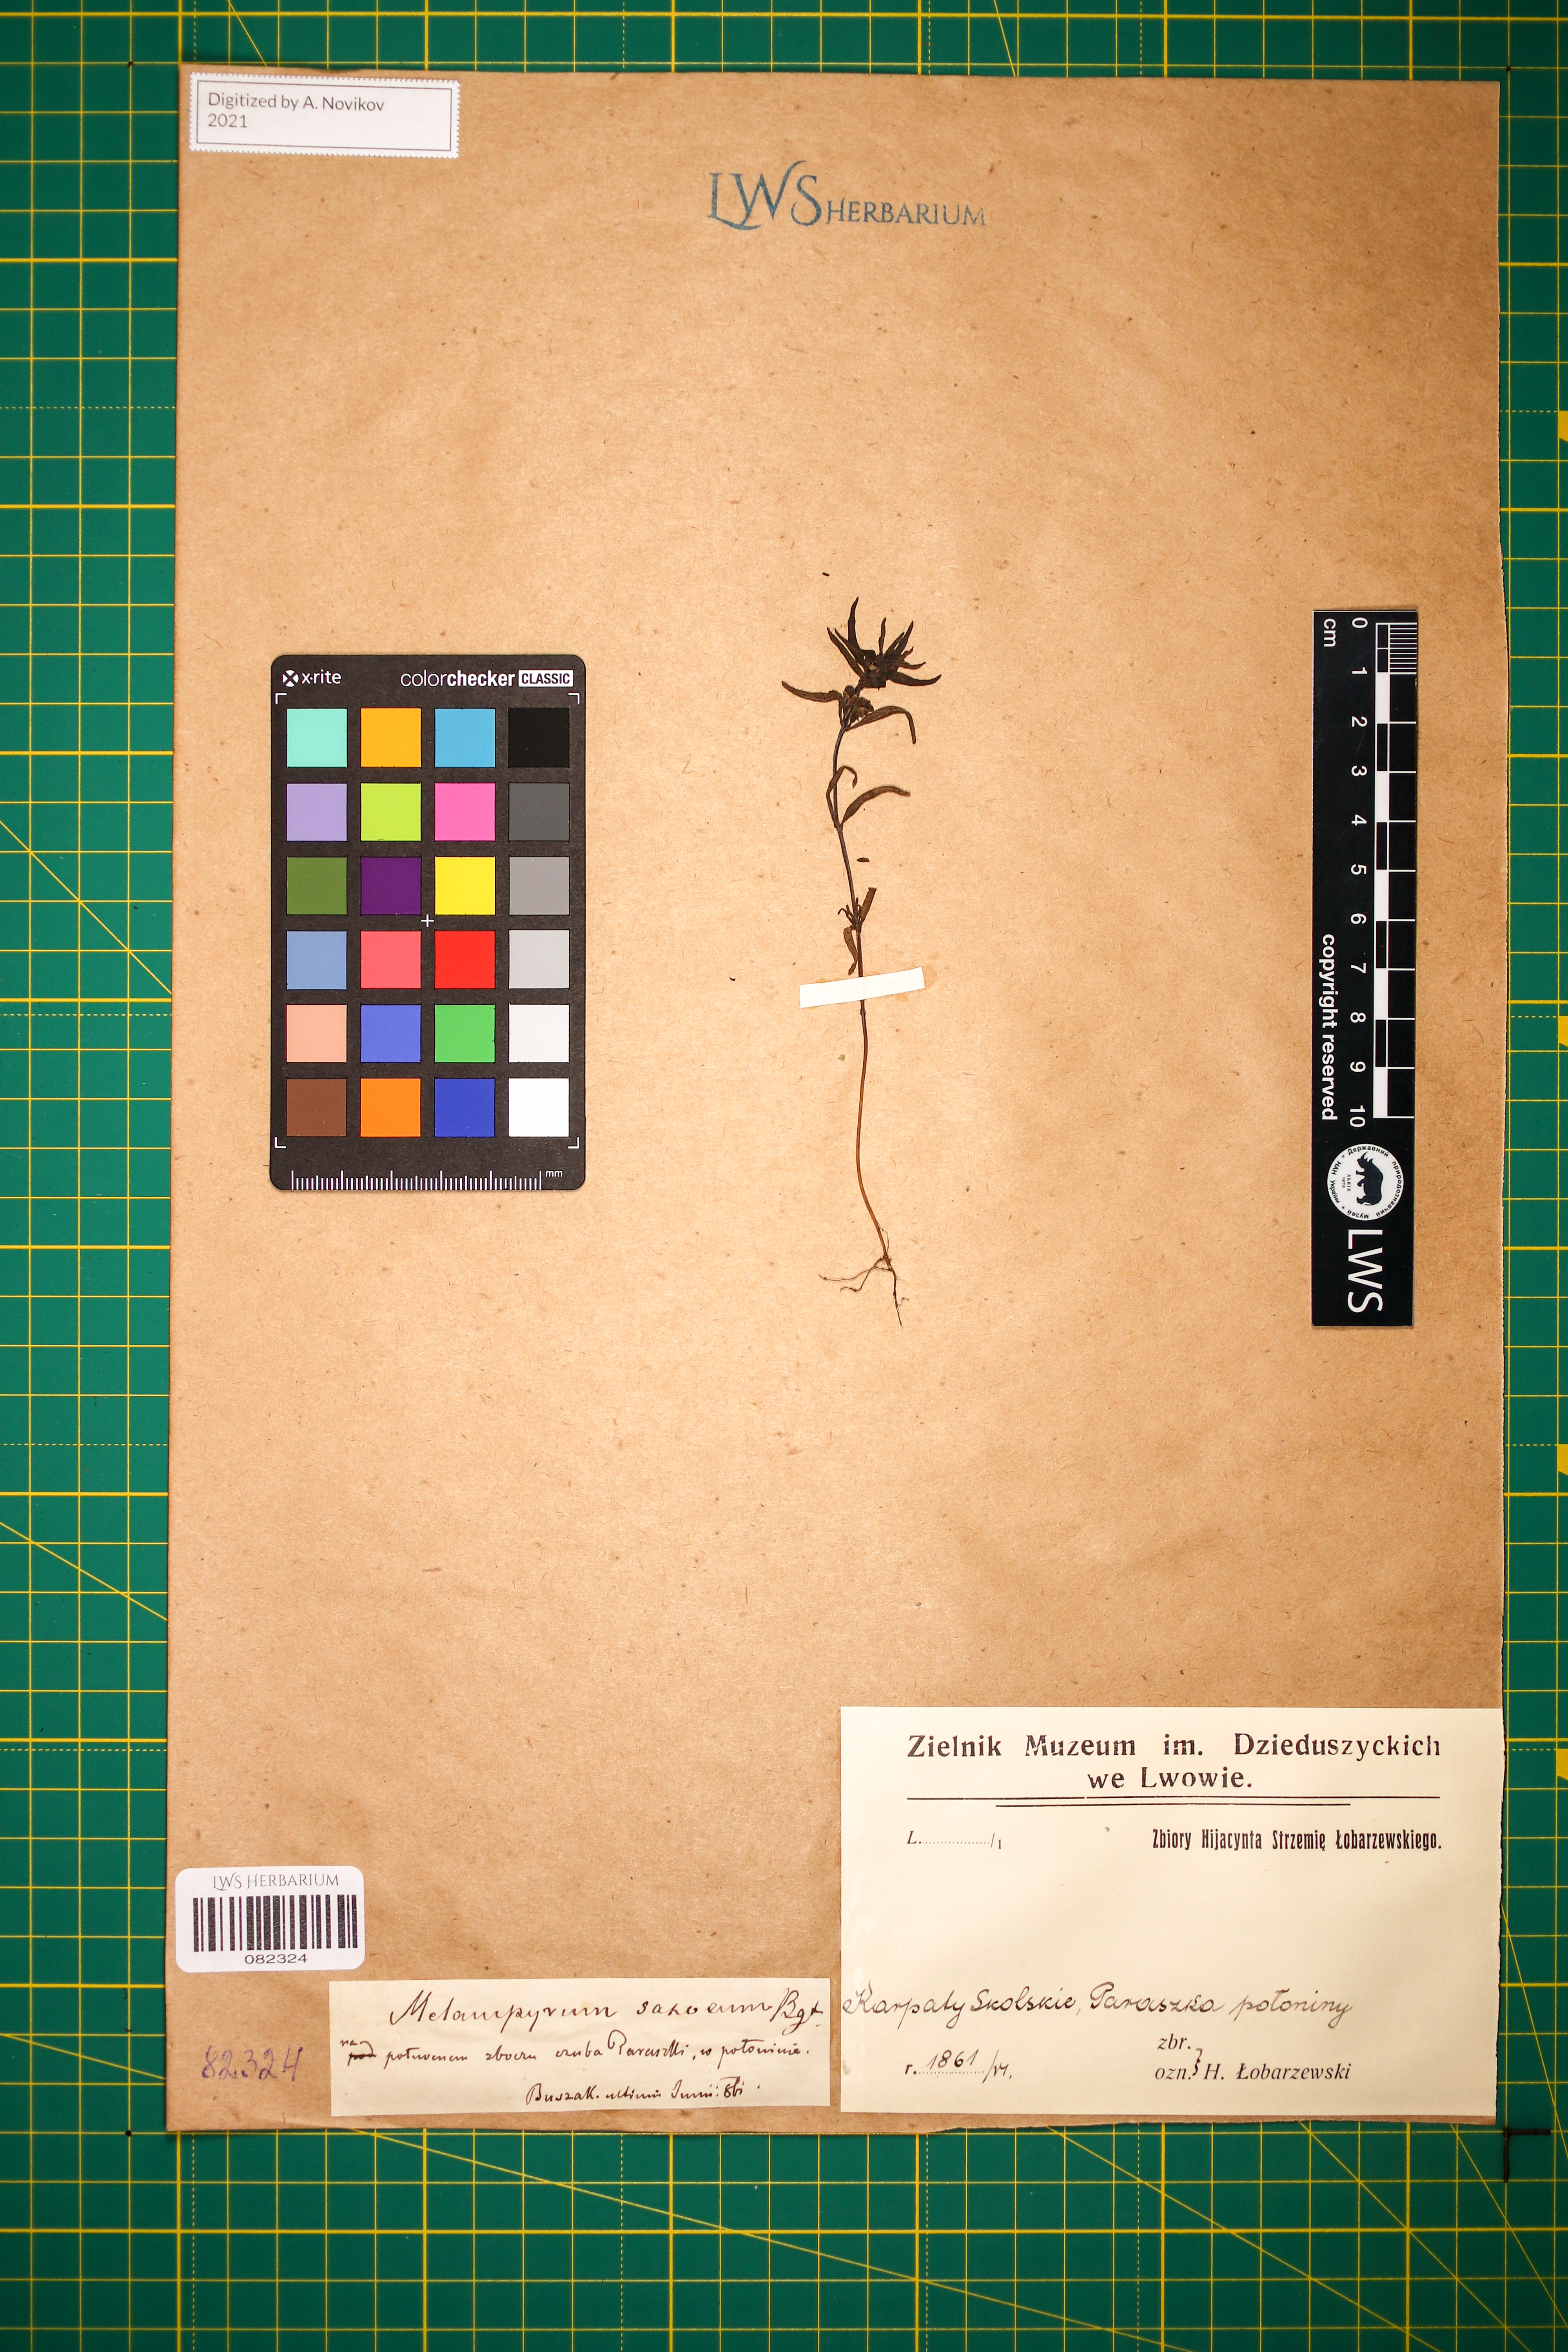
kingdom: Plantae
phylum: Tracheophyta
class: Magnoliopsida
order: Lamiales
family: Orobanchaceae
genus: Melampyrum
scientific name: Melampyrum saxosum
